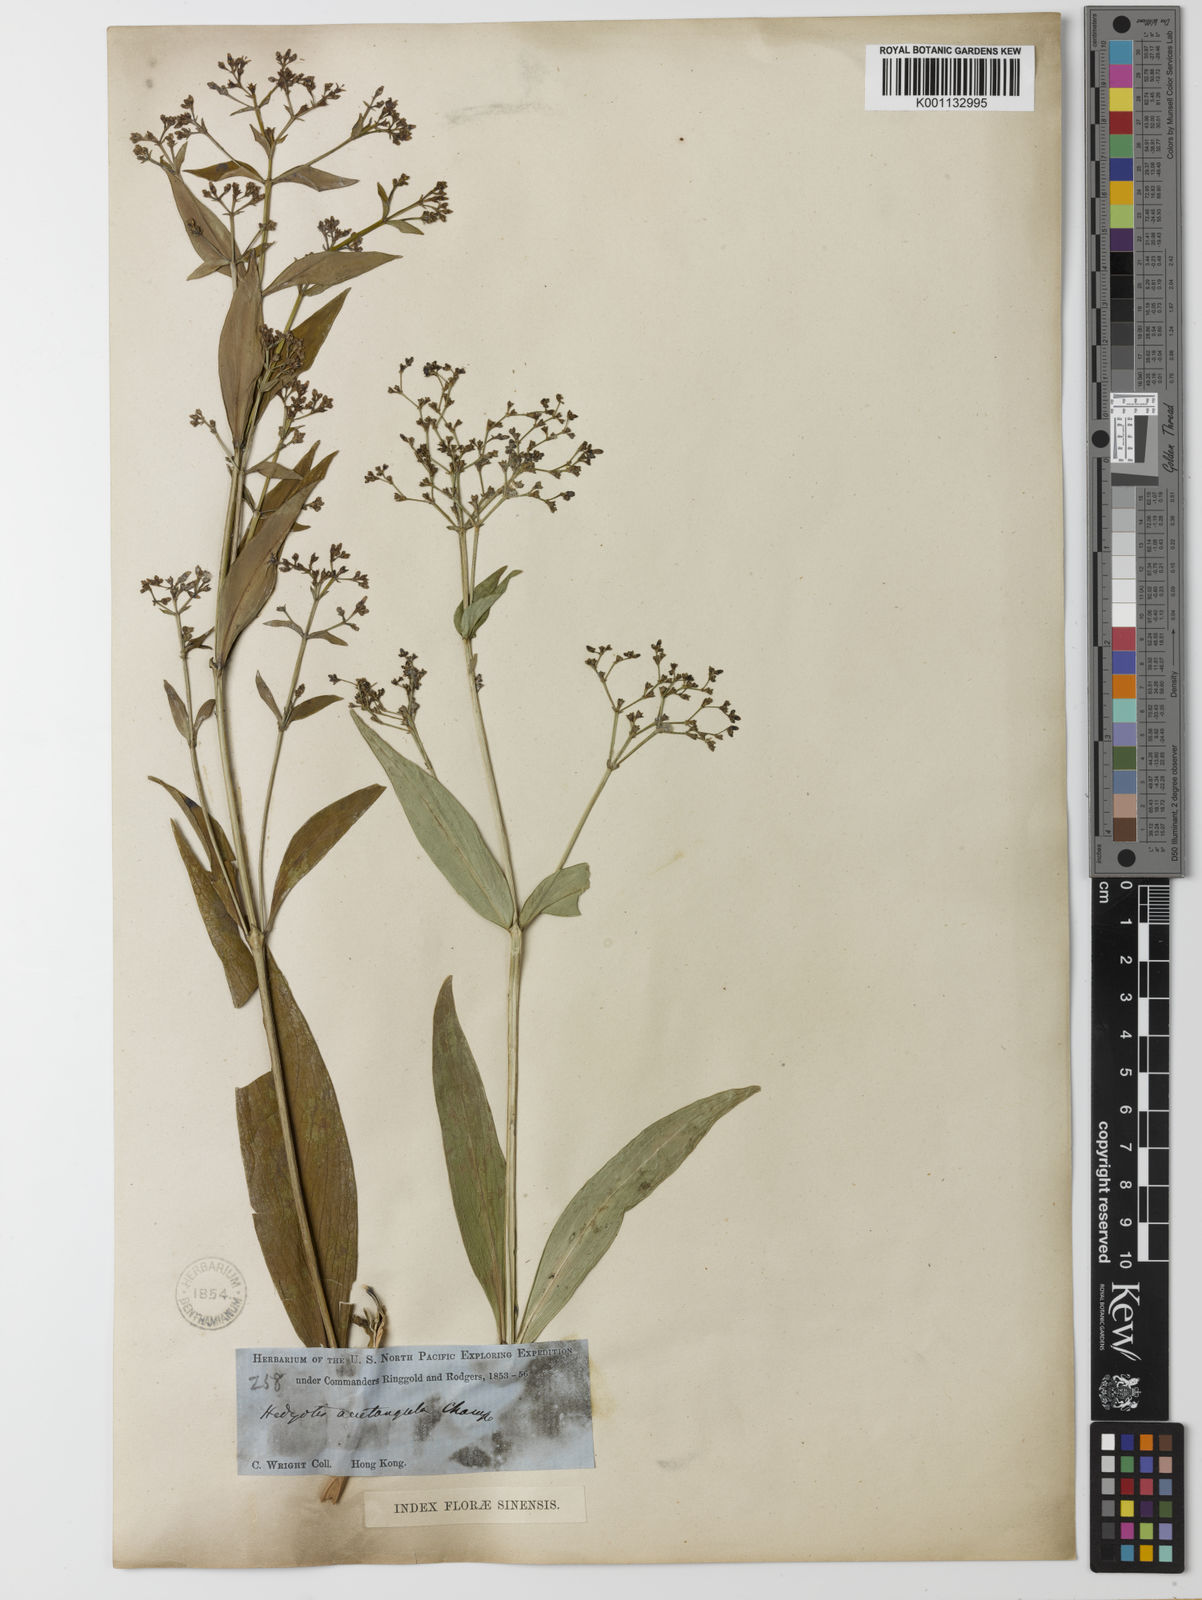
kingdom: Plantae
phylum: Tracheophyta
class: Magnoliopsida
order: Gentianales
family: Rubiaceae
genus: Hedyotis
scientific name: Hedyotis acutangula
